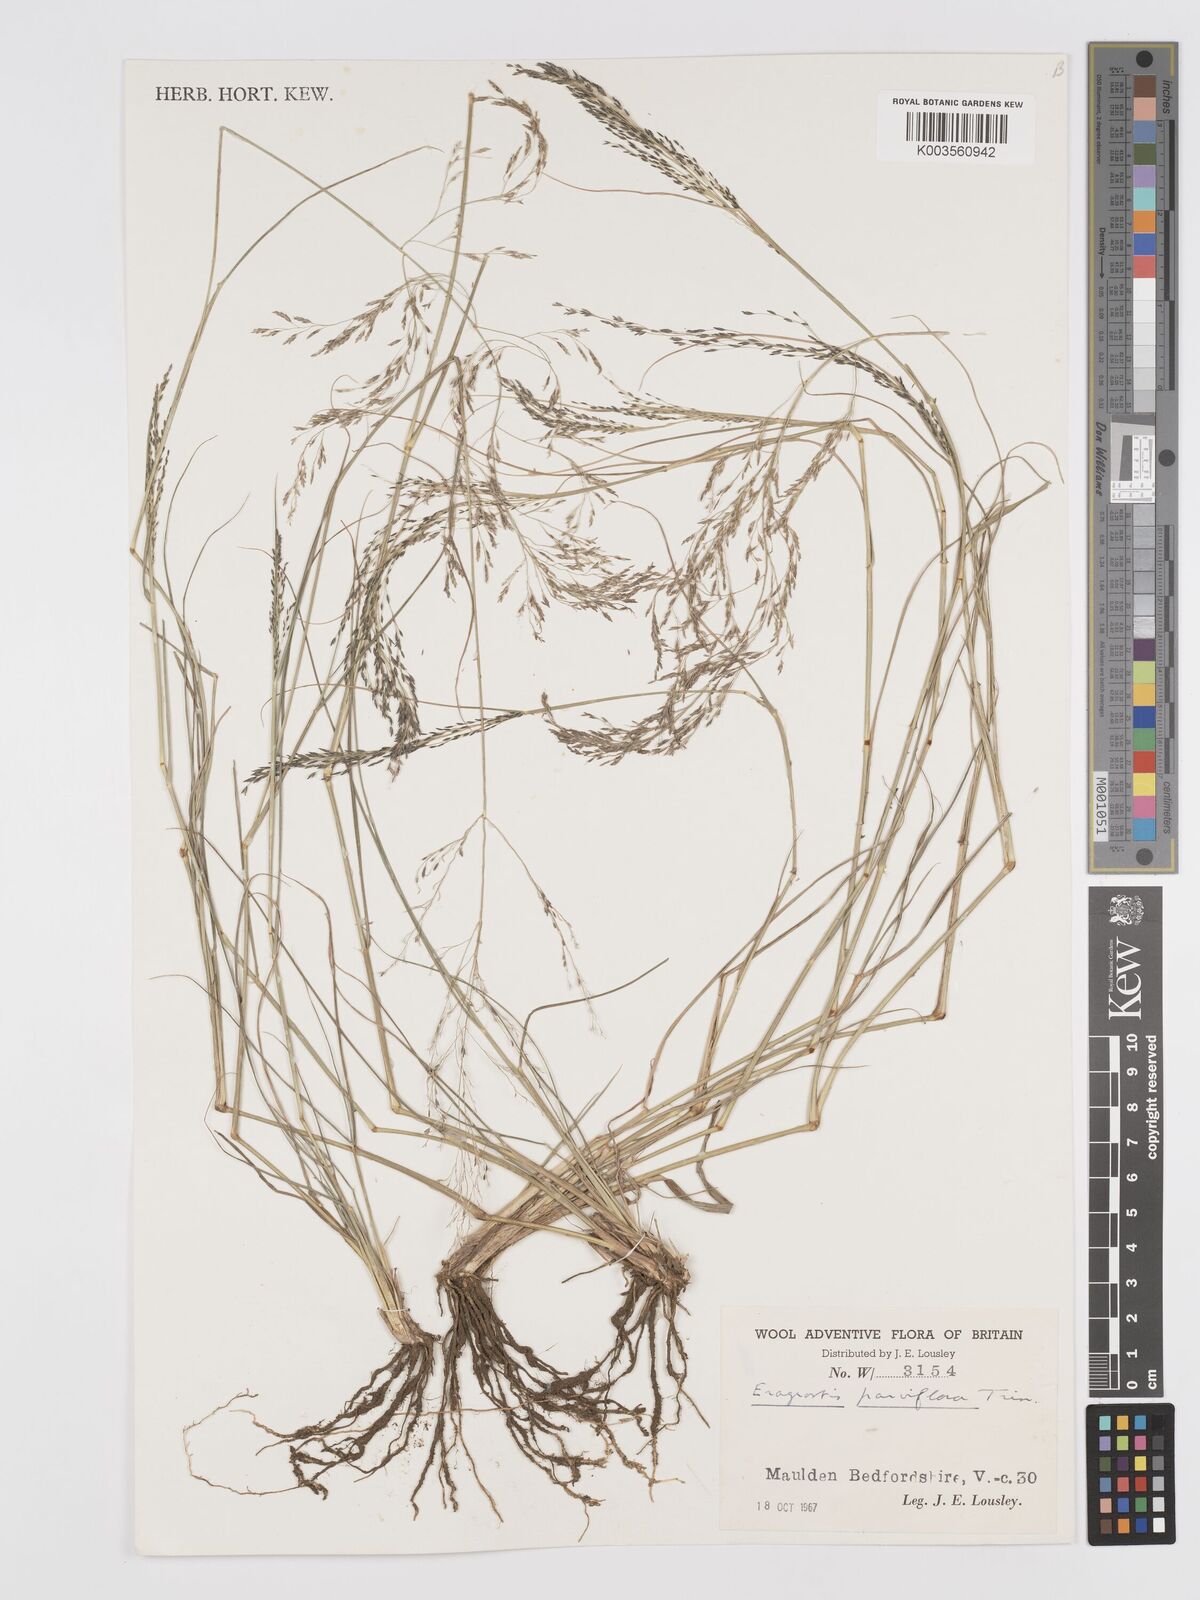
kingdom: Plantae
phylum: Tracheophyta
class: Liliopsida
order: Poales
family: Poaceae
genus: Eragrostis
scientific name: Eragrostis parviflora
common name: Weeping love-grass
